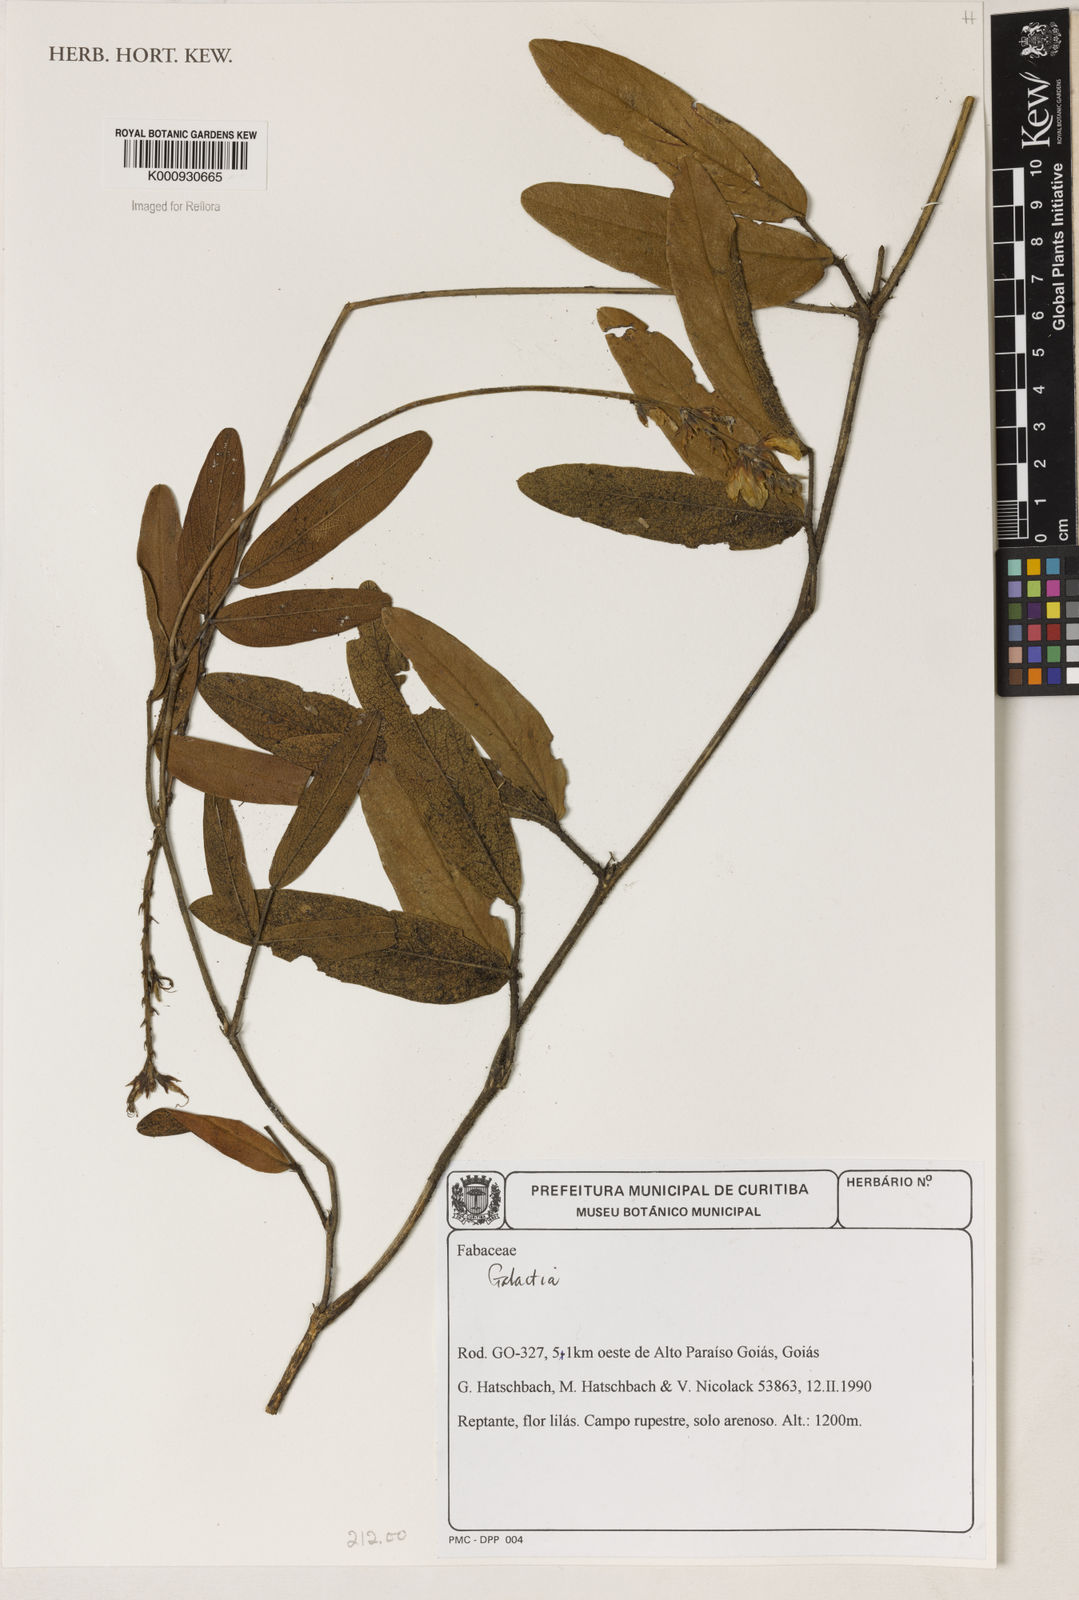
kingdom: Plantae
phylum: Tracheophyta
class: Magnoliopsida
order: Fabales
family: Fabaceae
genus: Galactia
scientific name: Galactia
